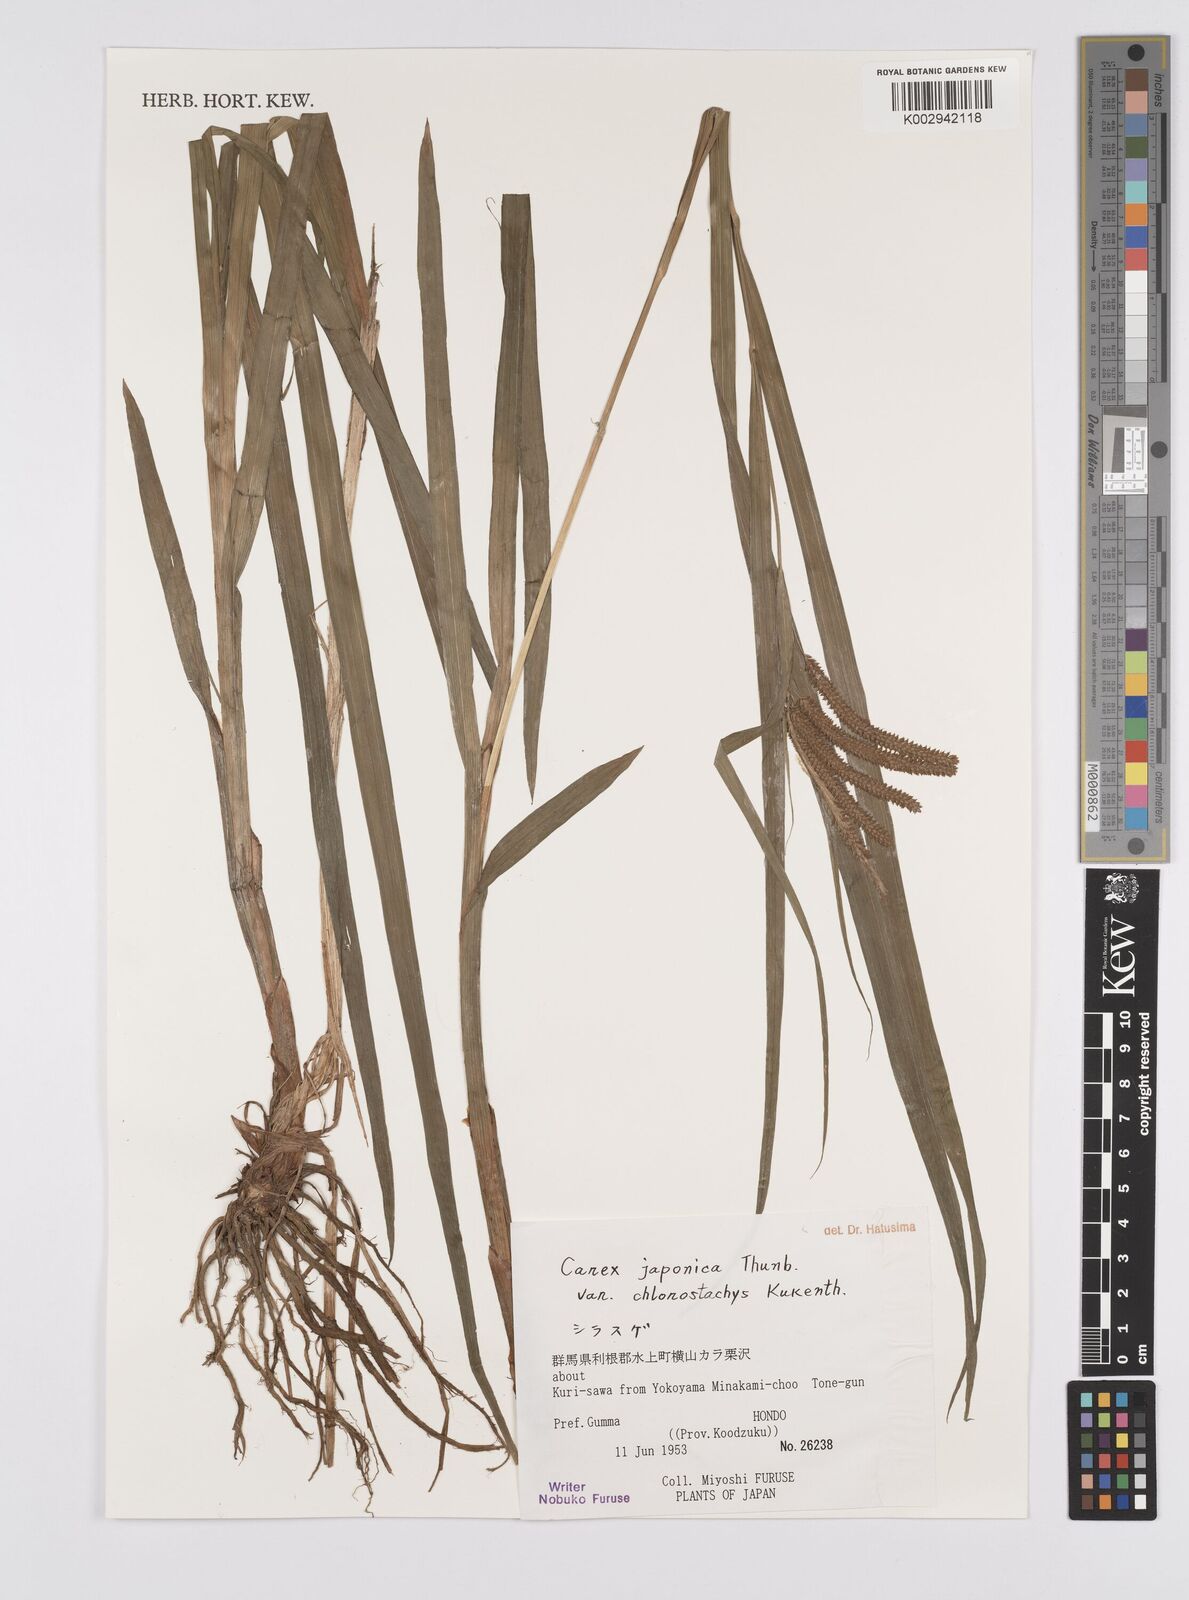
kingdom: Plantae
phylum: Tracheophyta
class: Liliopsida
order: Poales
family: Cyperaceae
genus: Carex
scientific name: Carex japonica
